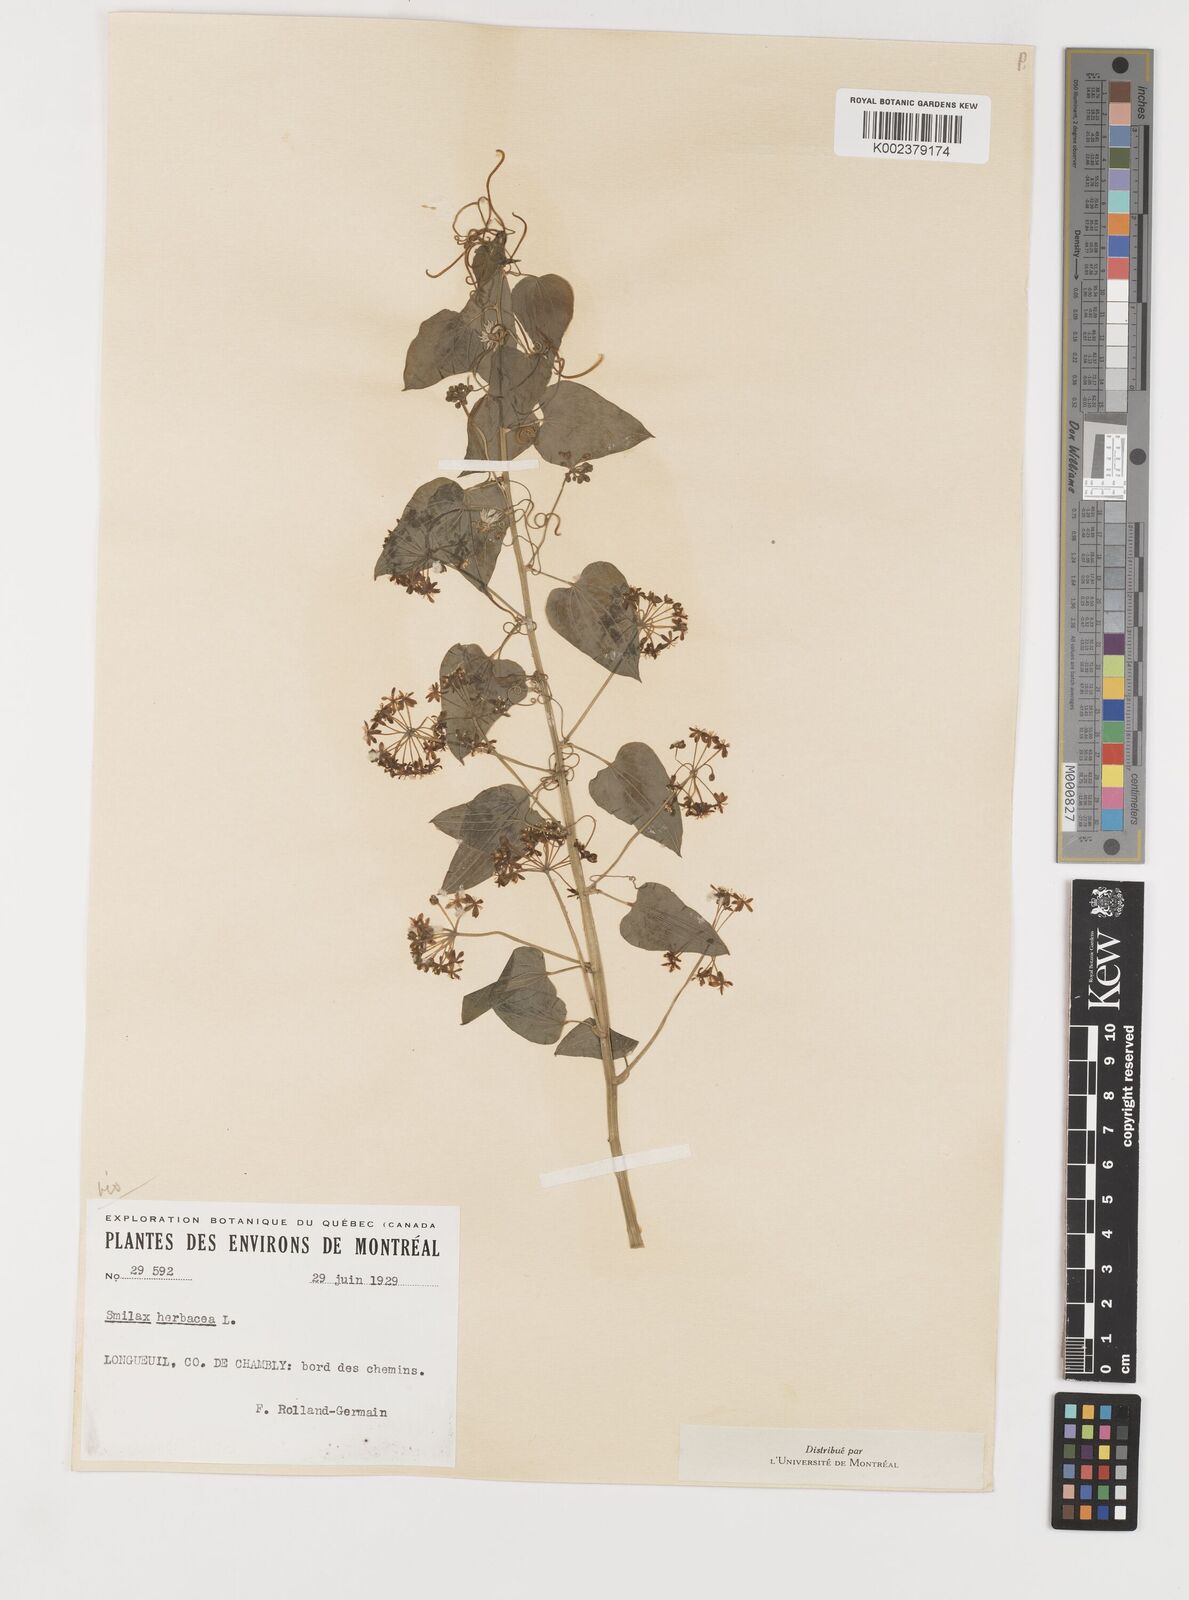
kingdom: Plantae
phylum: Tracheophyta
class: Liliopsida
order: Liliales
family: Smilacaceae
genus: Smilax
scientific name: Smilax herbacea
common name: Jacob's-ladder
